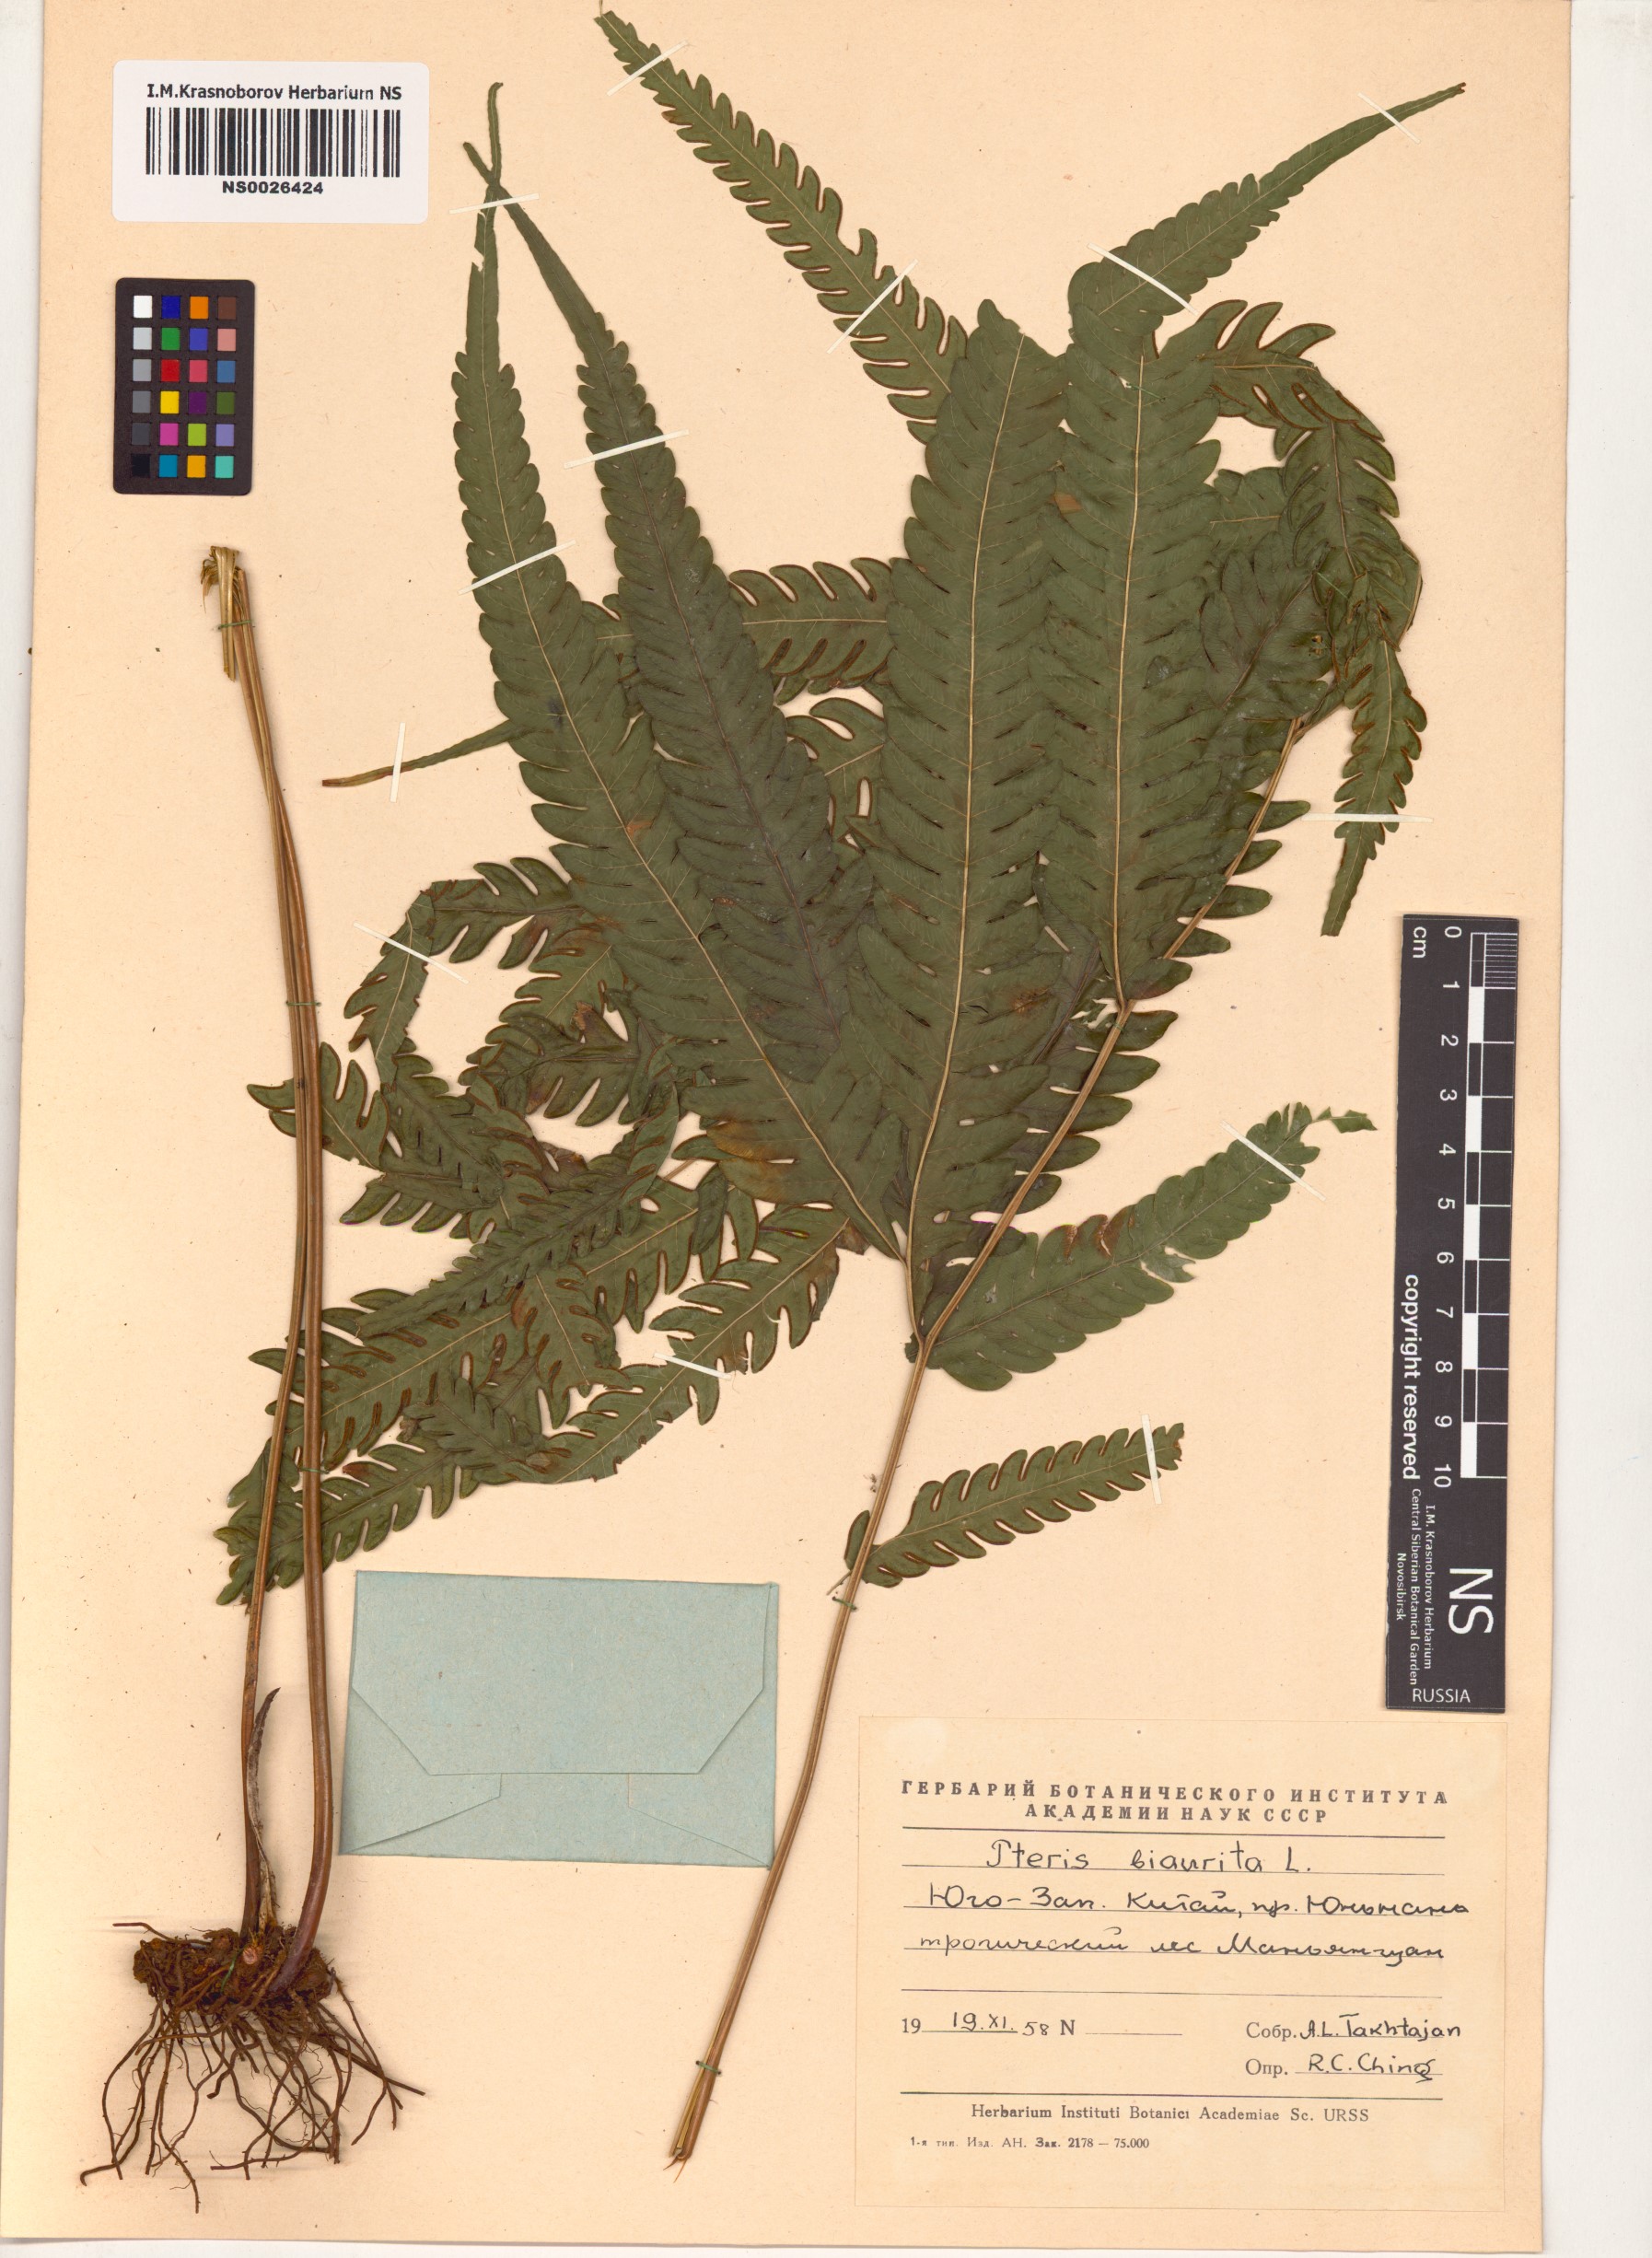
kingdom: Plantae
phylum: Tracheophyta
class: Polypodiopsida
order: Polypodiales
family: Pteridaceae
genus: Pteris
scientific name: Pteris biaurita
